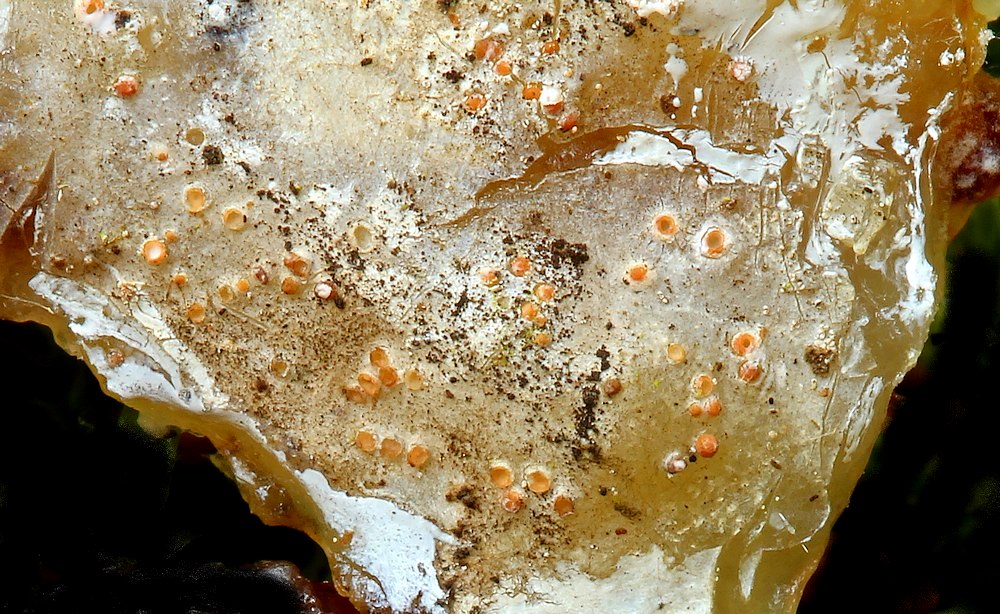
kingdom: Fungi
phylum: Ascomycota
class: Sareomycetes
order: Sareales
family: Sareaceae
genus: Sarea
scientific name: Sarea resinae
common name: orangegul harpiksskive
